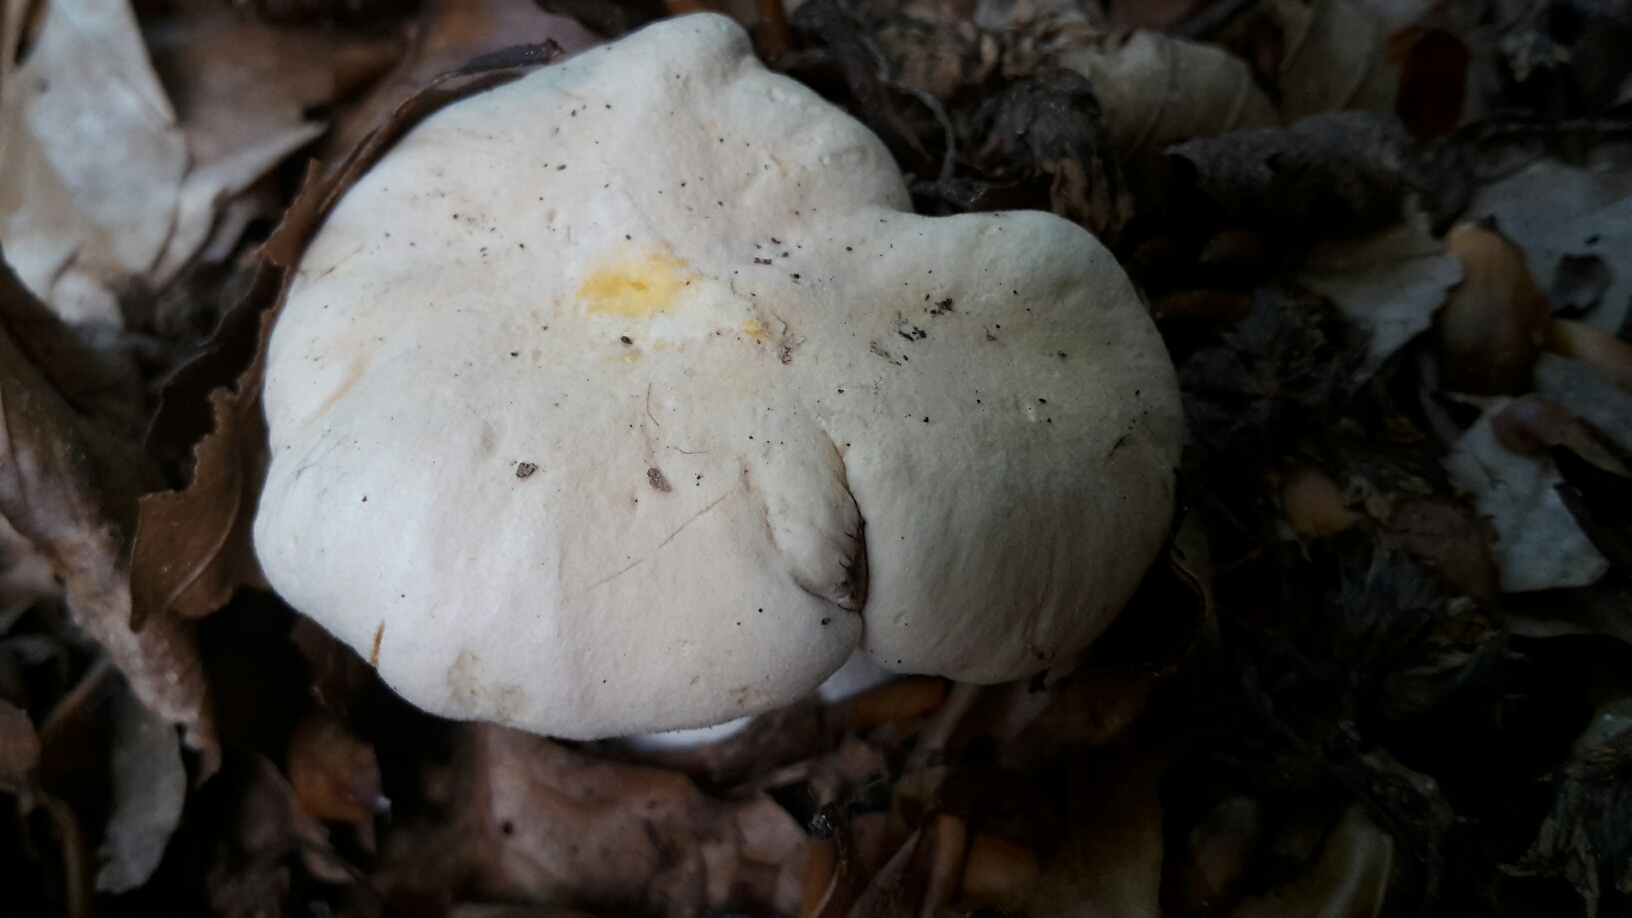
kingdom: Fungi
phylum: Basidiomycota
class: Agaricomycetes
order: Cantharellales
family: Hydnaceae
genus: Cantharellus
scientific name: Cantharellus pallens
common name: bleg kantarel
